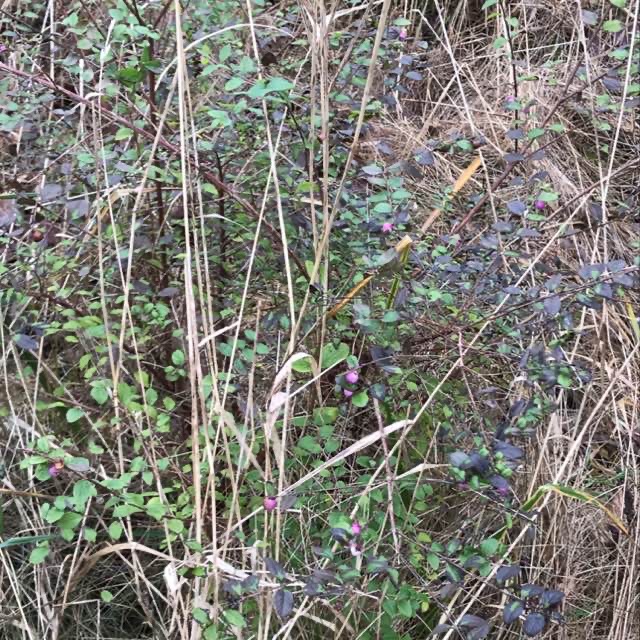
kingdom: Plantae
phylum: Tracheophyta
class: Magnoliopsida
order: Dipsacales
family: Caprifoliaceae
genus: Symphoricarpos
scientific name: Symphoricarpos chenaultii
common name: Rød snebær
